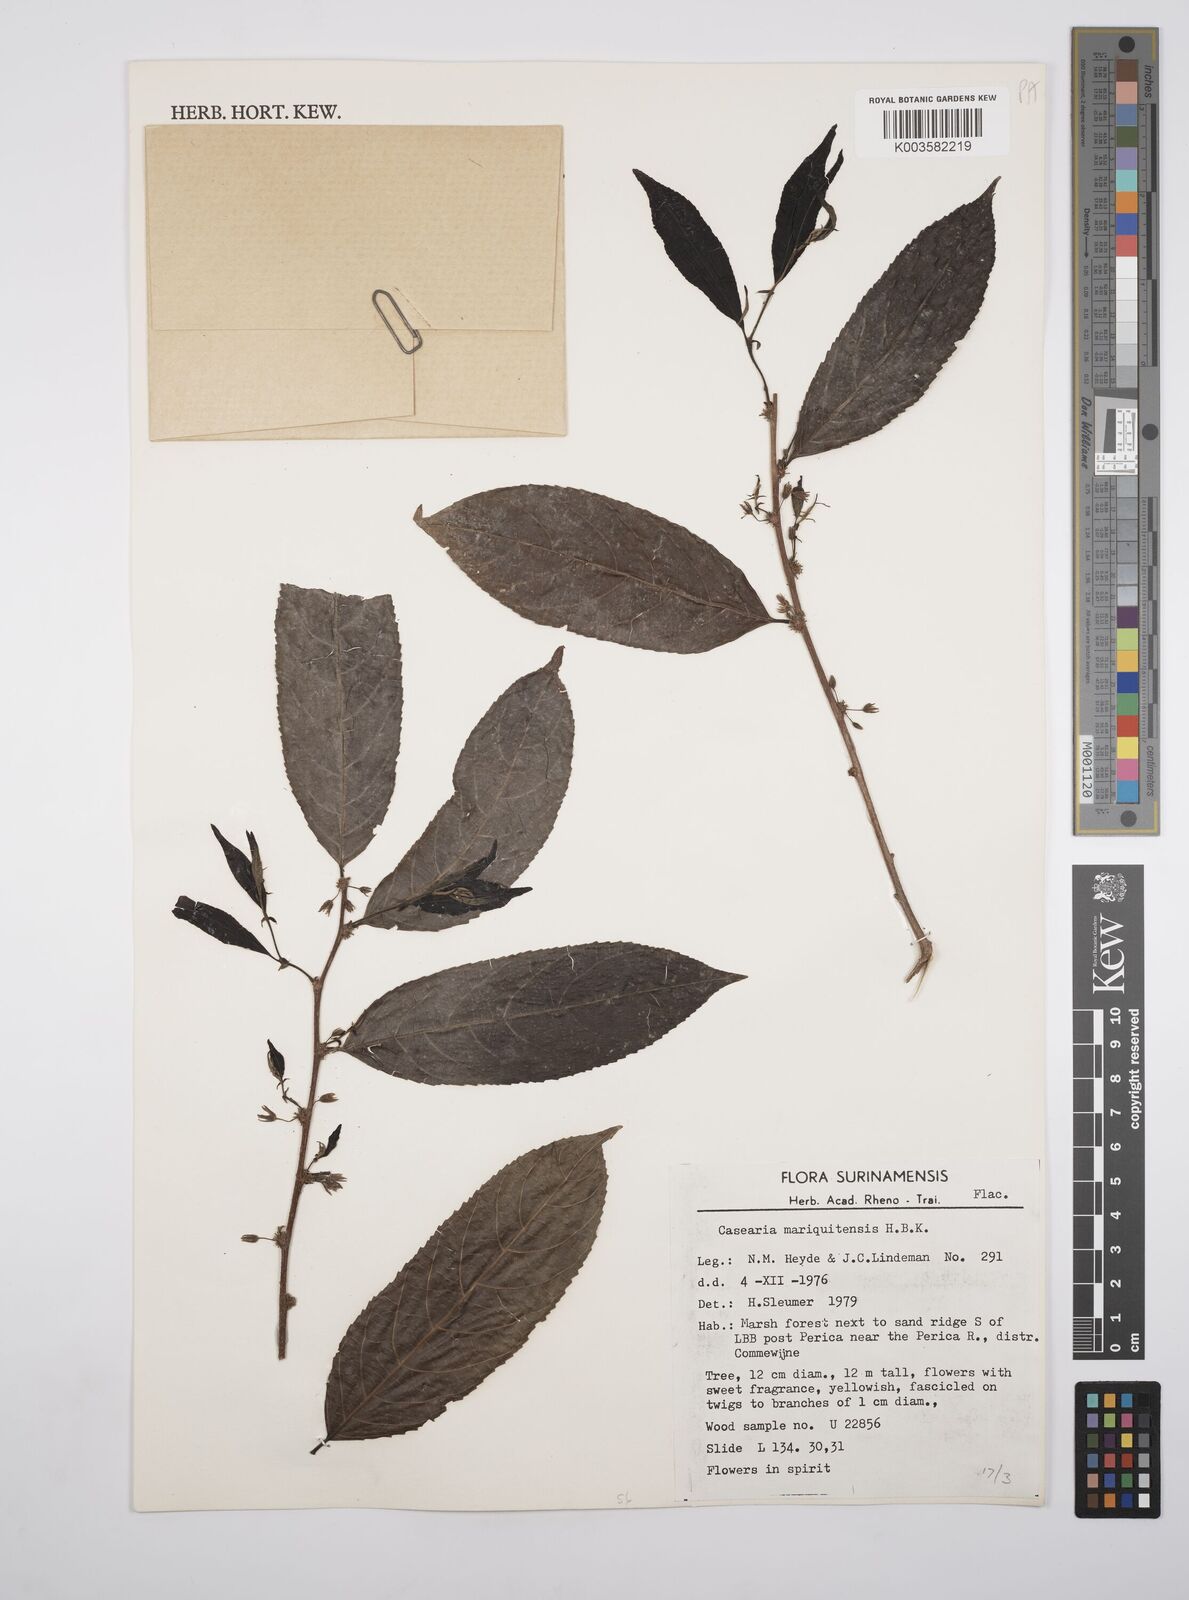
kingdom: Plantae
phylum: Tracheophyta
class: Magnoliopsida
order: Malpighiales
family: Salicaceae
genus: Casearia
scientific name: Casearia mariquitensis
